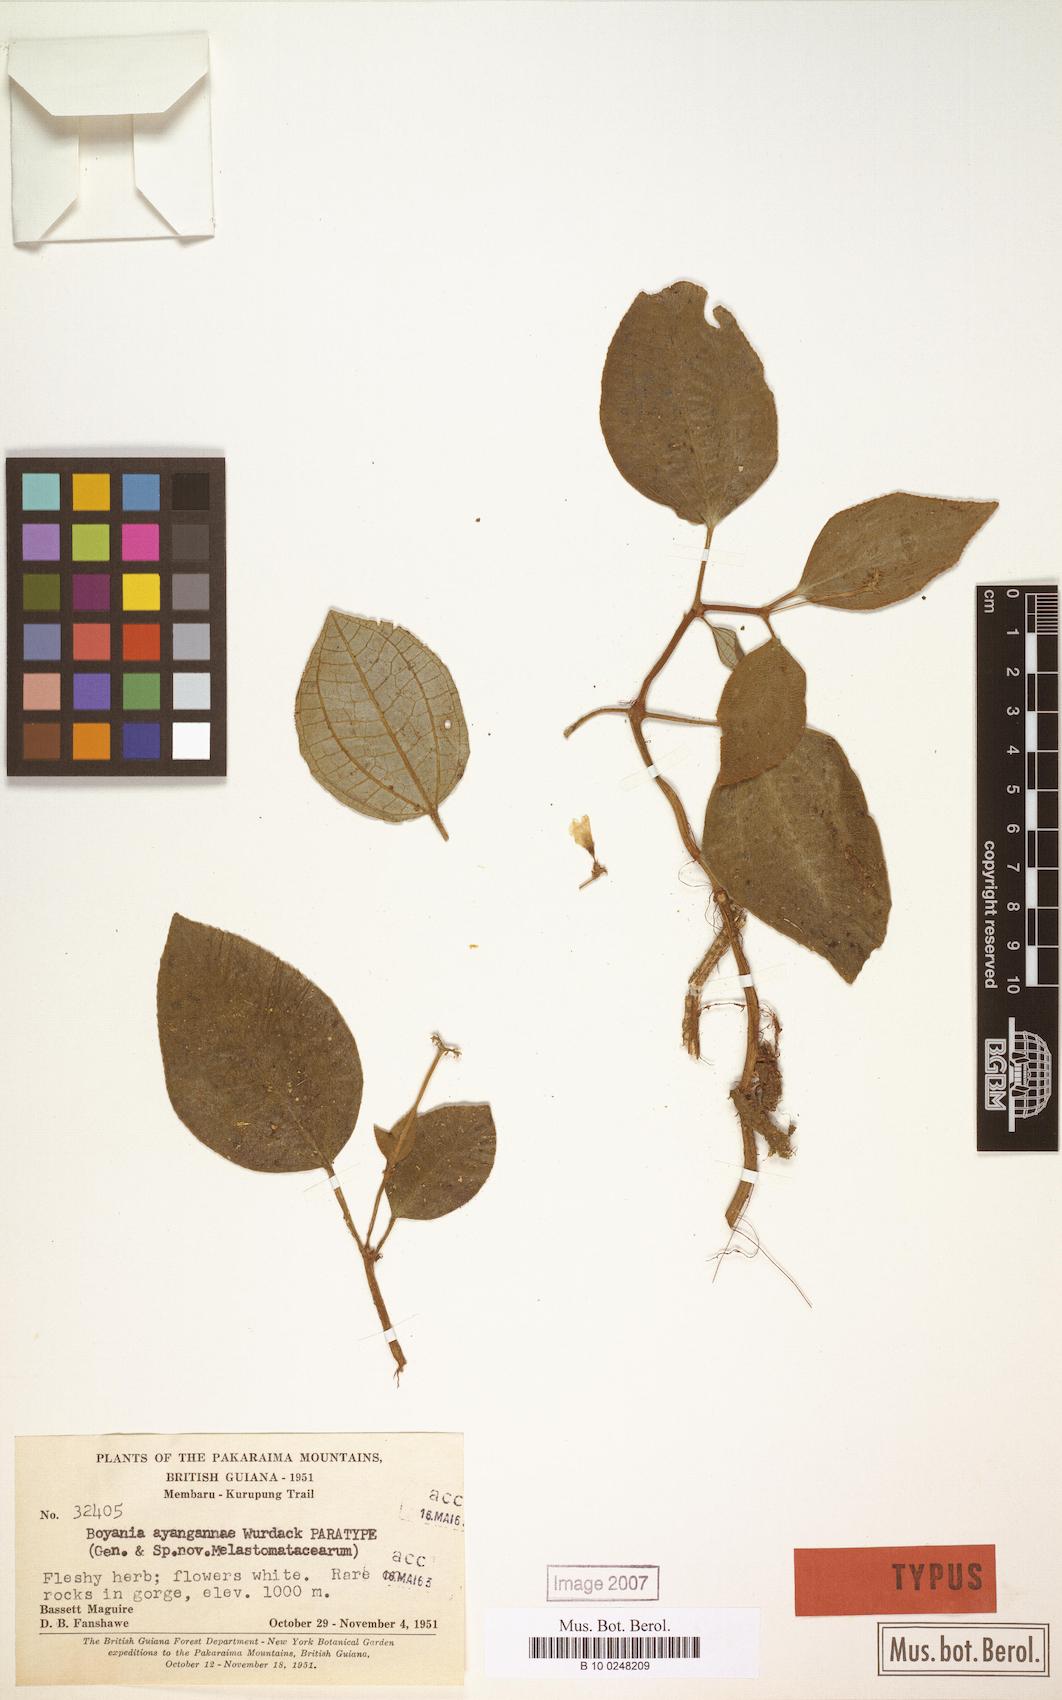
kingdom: Plantae
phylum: Tracheophyta
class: Magnoliopsida
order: Myrtales
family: Melastomataceae
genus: Boyania
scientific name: Boyania ayangannae
